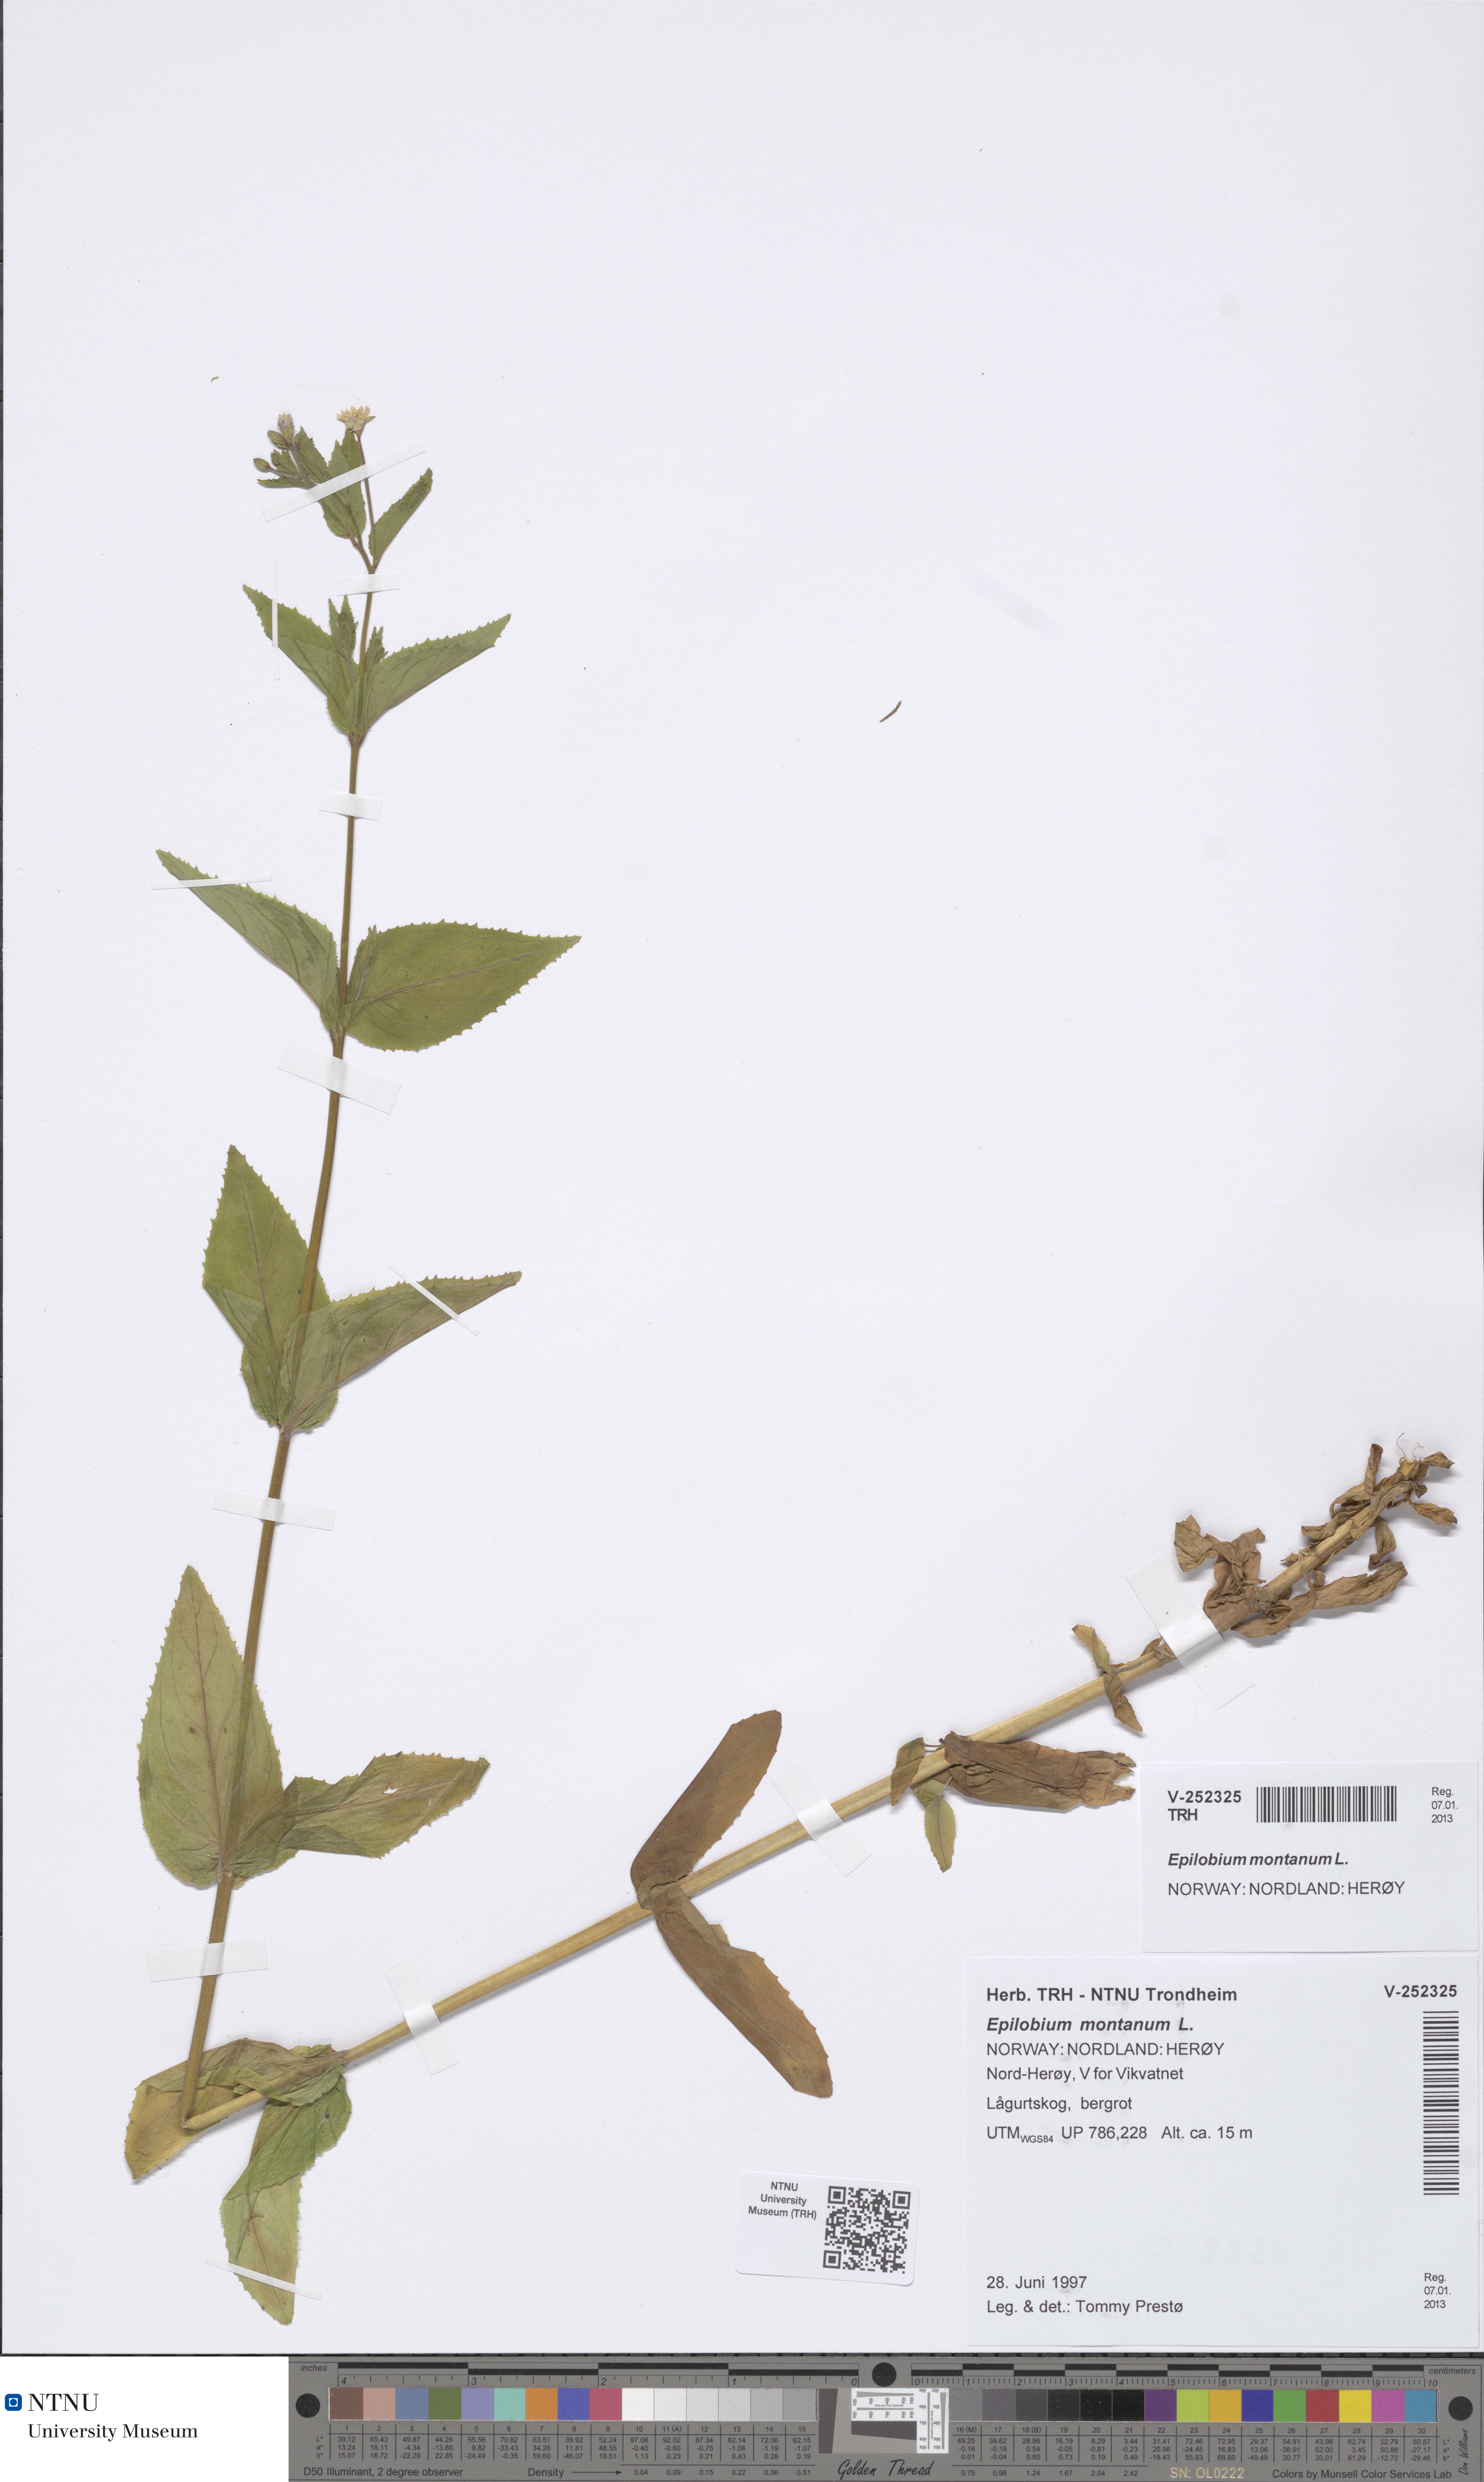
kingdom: Plantae
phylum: Tracheophyta
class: Magnoliopsida
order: Myrtales
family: Onagraceae
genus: Epilobium
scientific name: Epilobium montanum
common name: Broad-leaved willowherb
